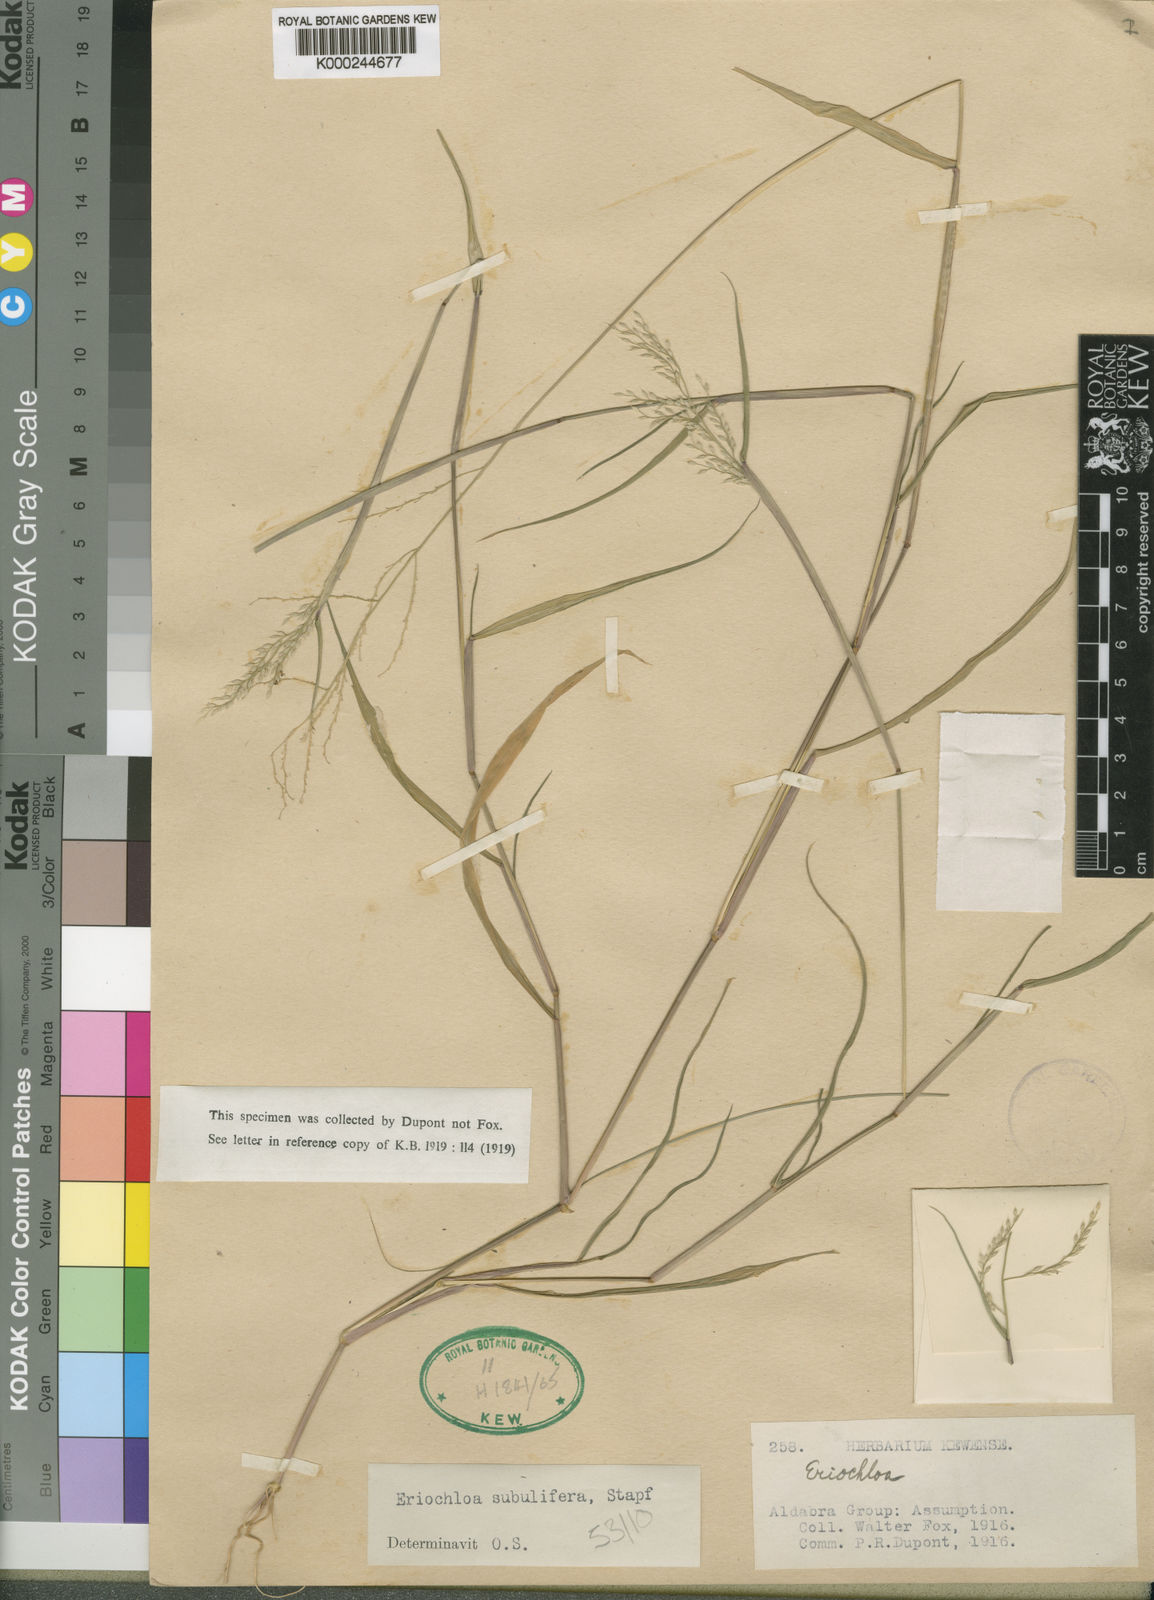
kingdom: Plantae
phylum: Tracheophyta
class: Liliopsida
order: Poales
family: Poaceae
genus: Eriochloa
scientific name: Eriochloa subulifera
